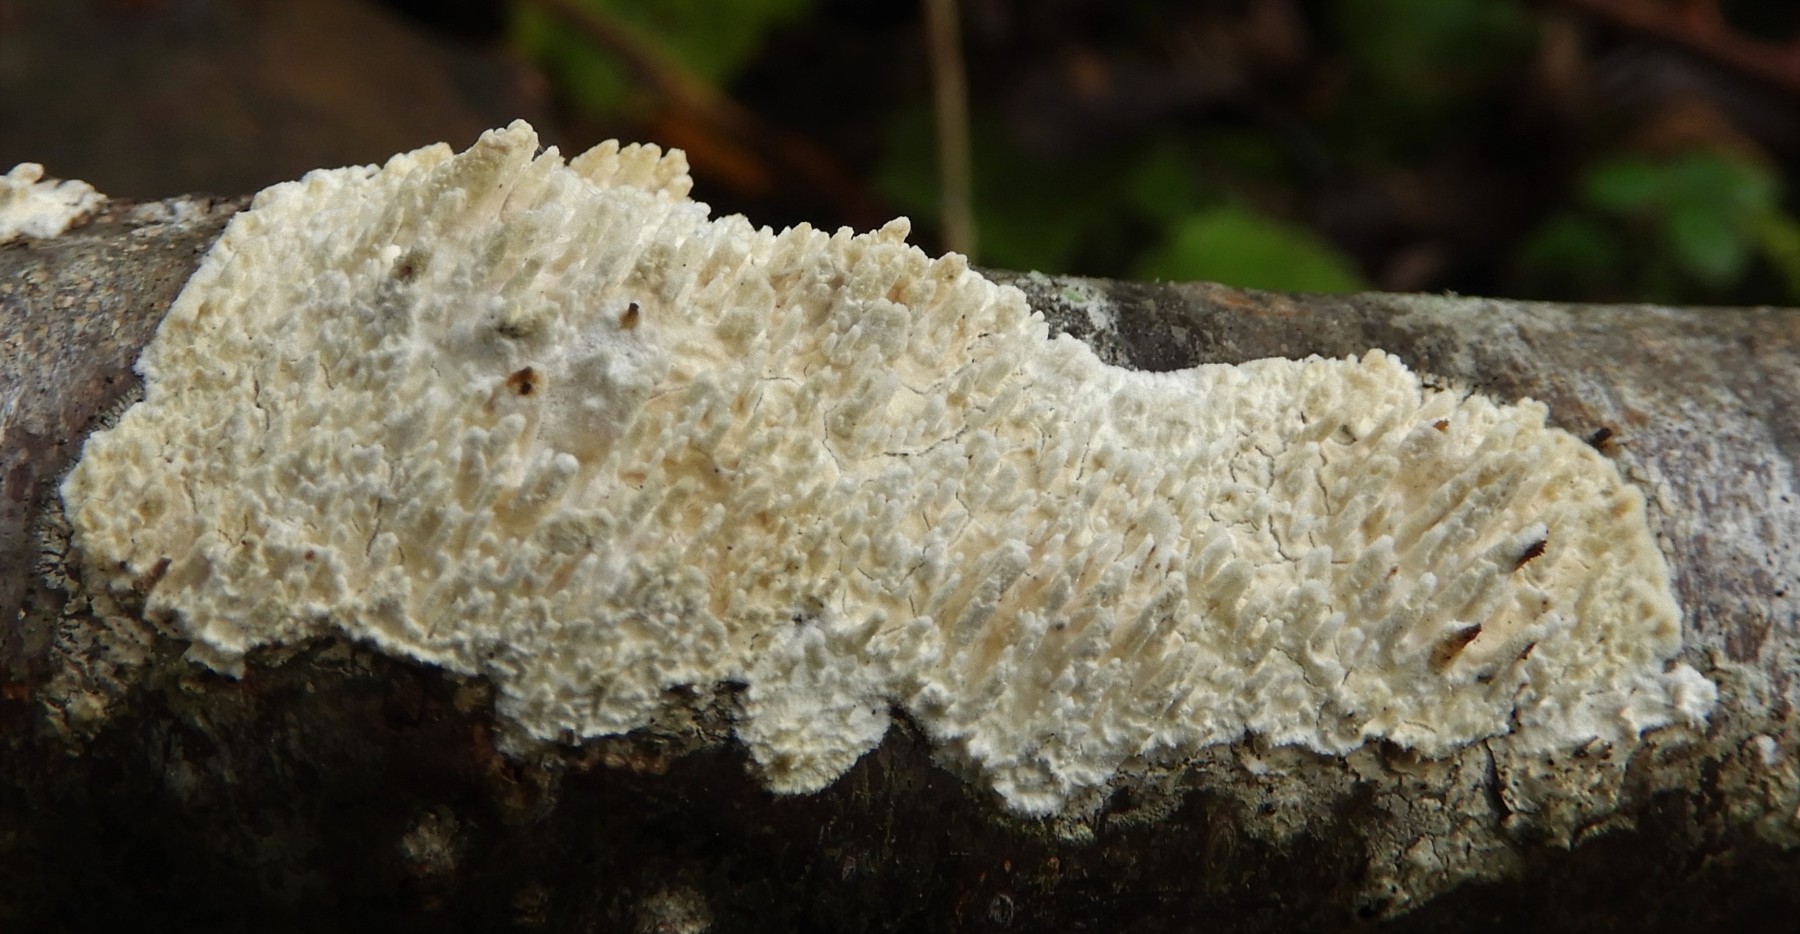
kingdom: Fungi
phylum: Basidiomycota
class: Agaricomycetes
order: Hymenochaetales
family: Schizoporaceae
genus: Xylodon
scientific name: Xylodon radula
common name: grovtandet kalkskind
